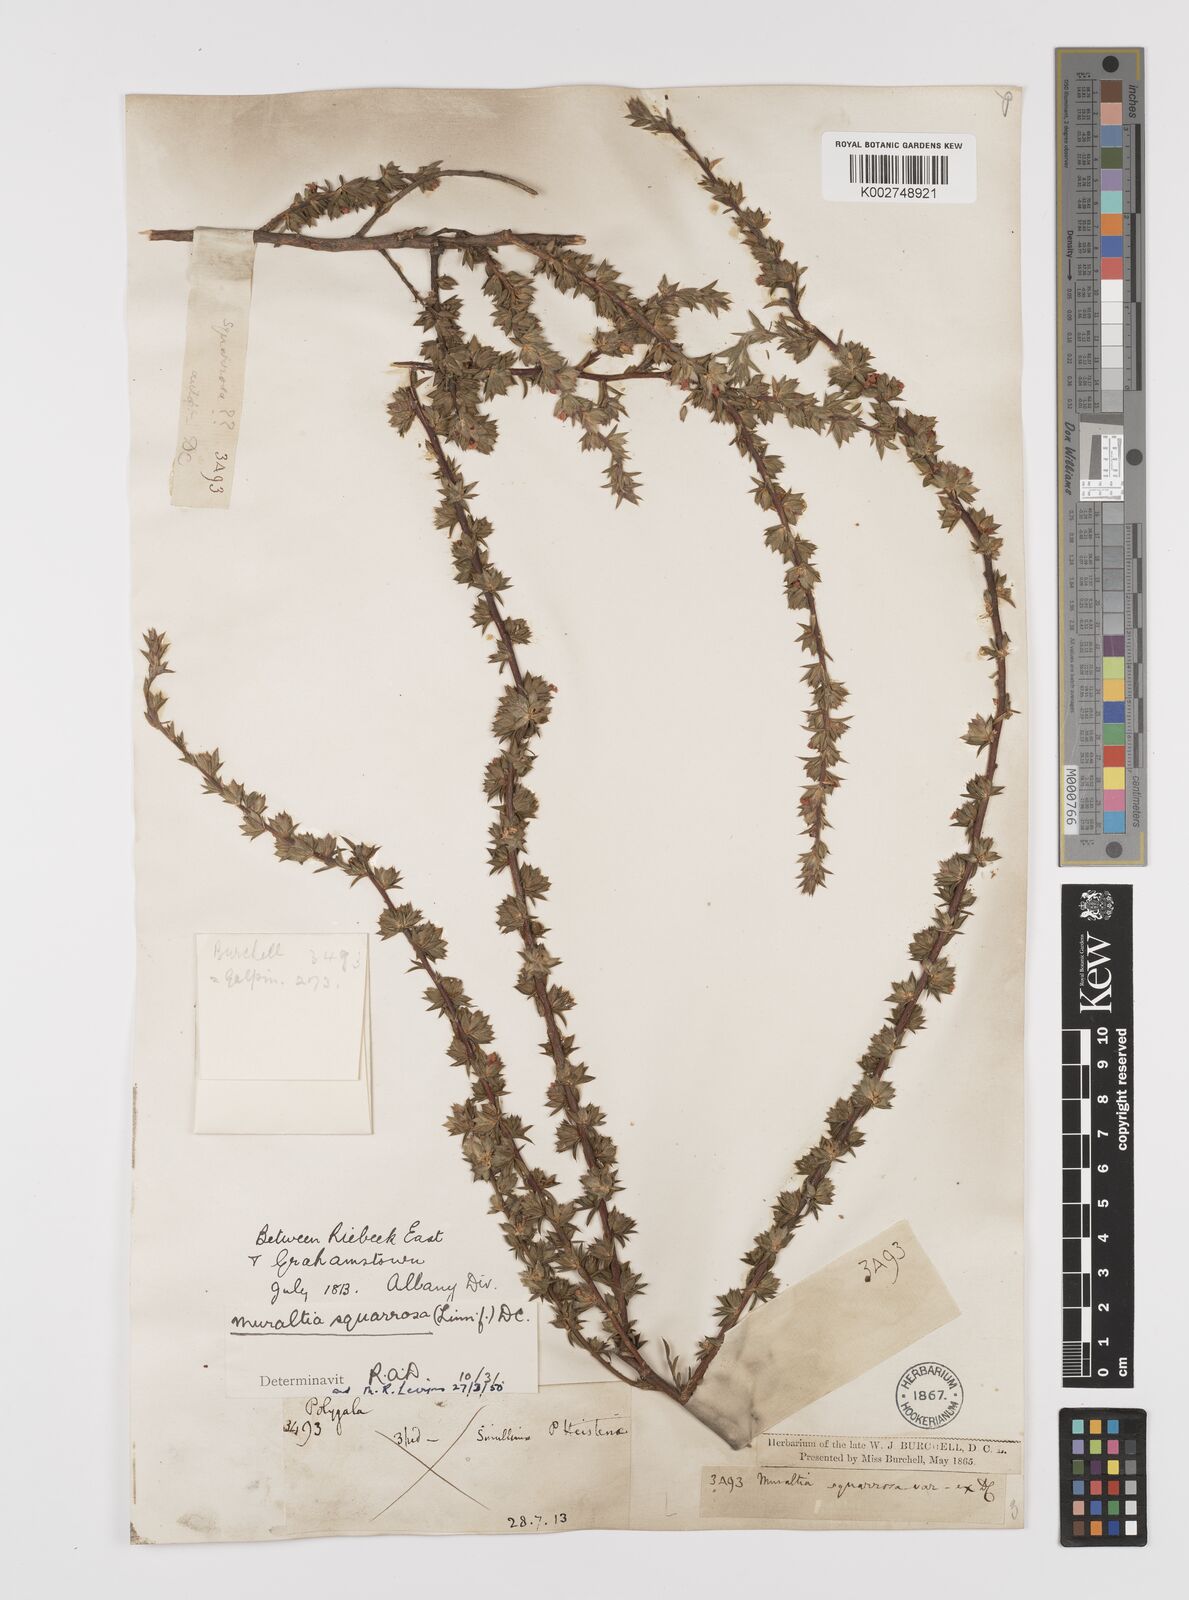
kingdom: Plantae
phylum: Tracheophyta
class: Magnoliopsida
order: Fabales
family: Polygalaceae
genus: Muraltia
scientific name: Muraltia squarrosa
